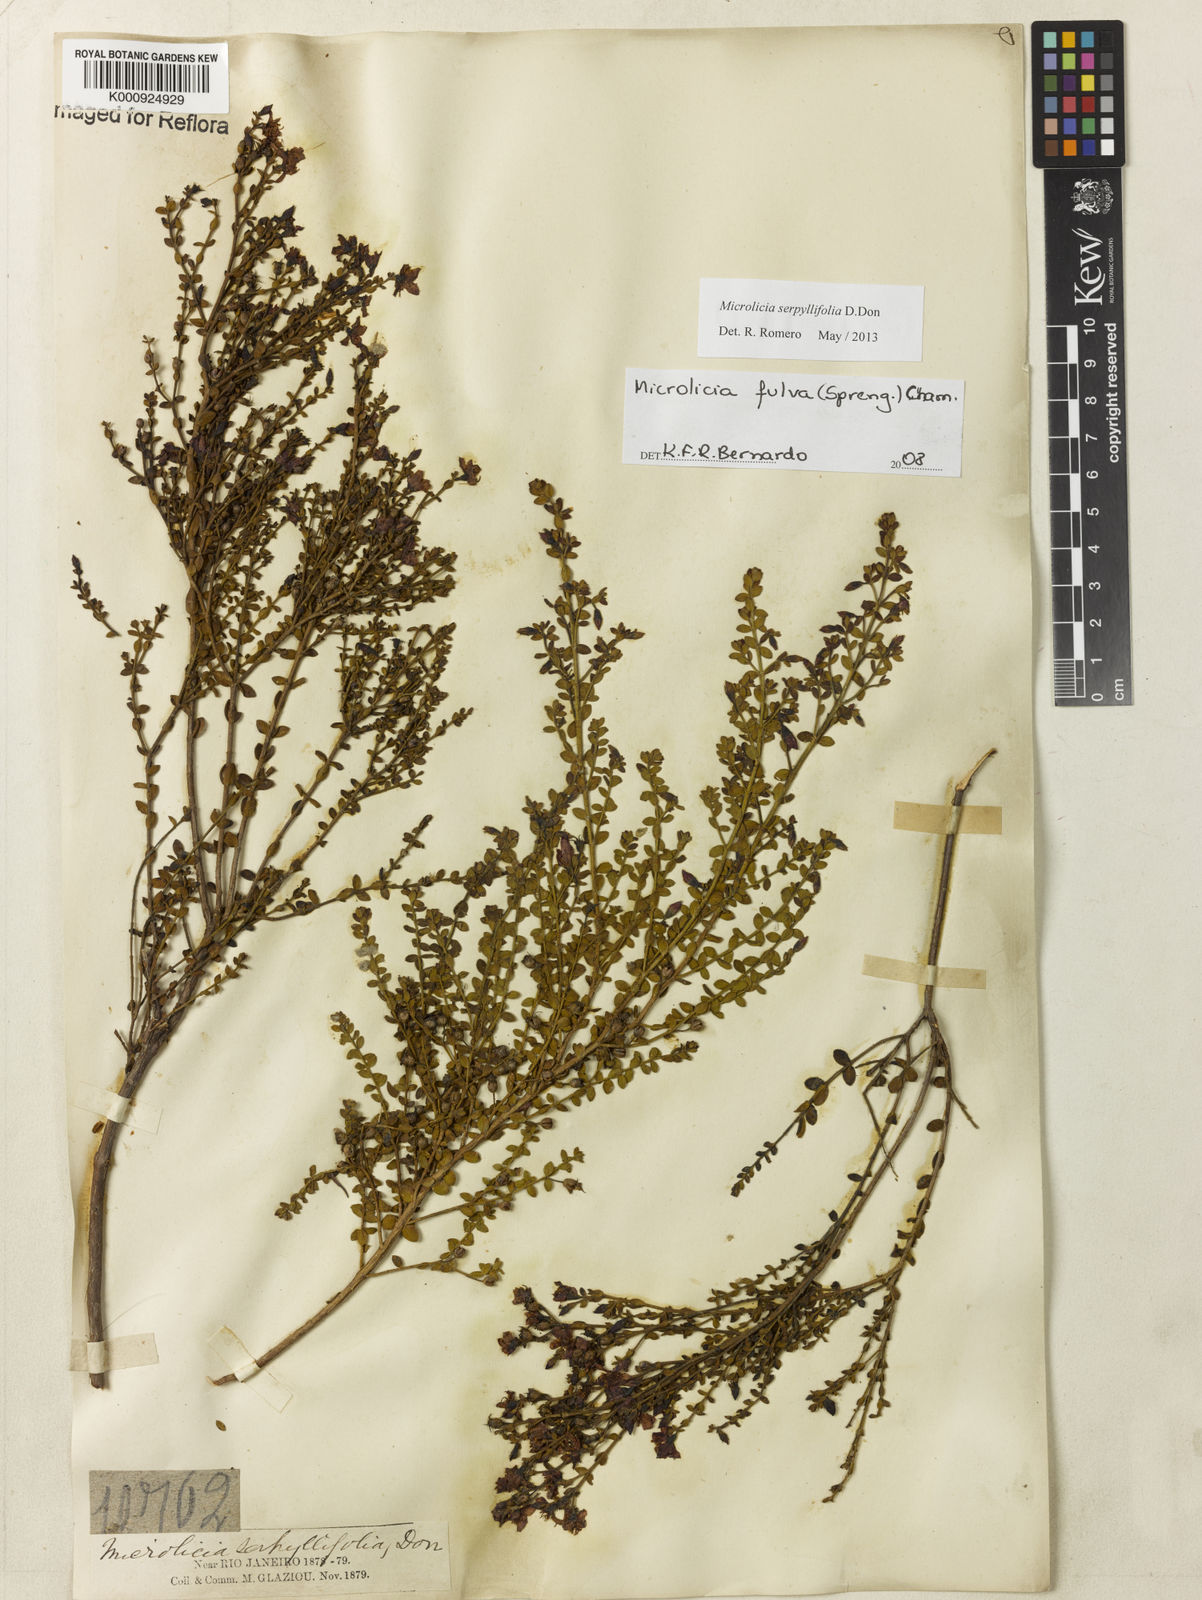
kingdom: Plantae
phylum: Tracheophyta
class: Magnoliopsida
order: Myrtales
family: Melastomataceae
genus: Microlicia
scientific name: Microlicia fulva
